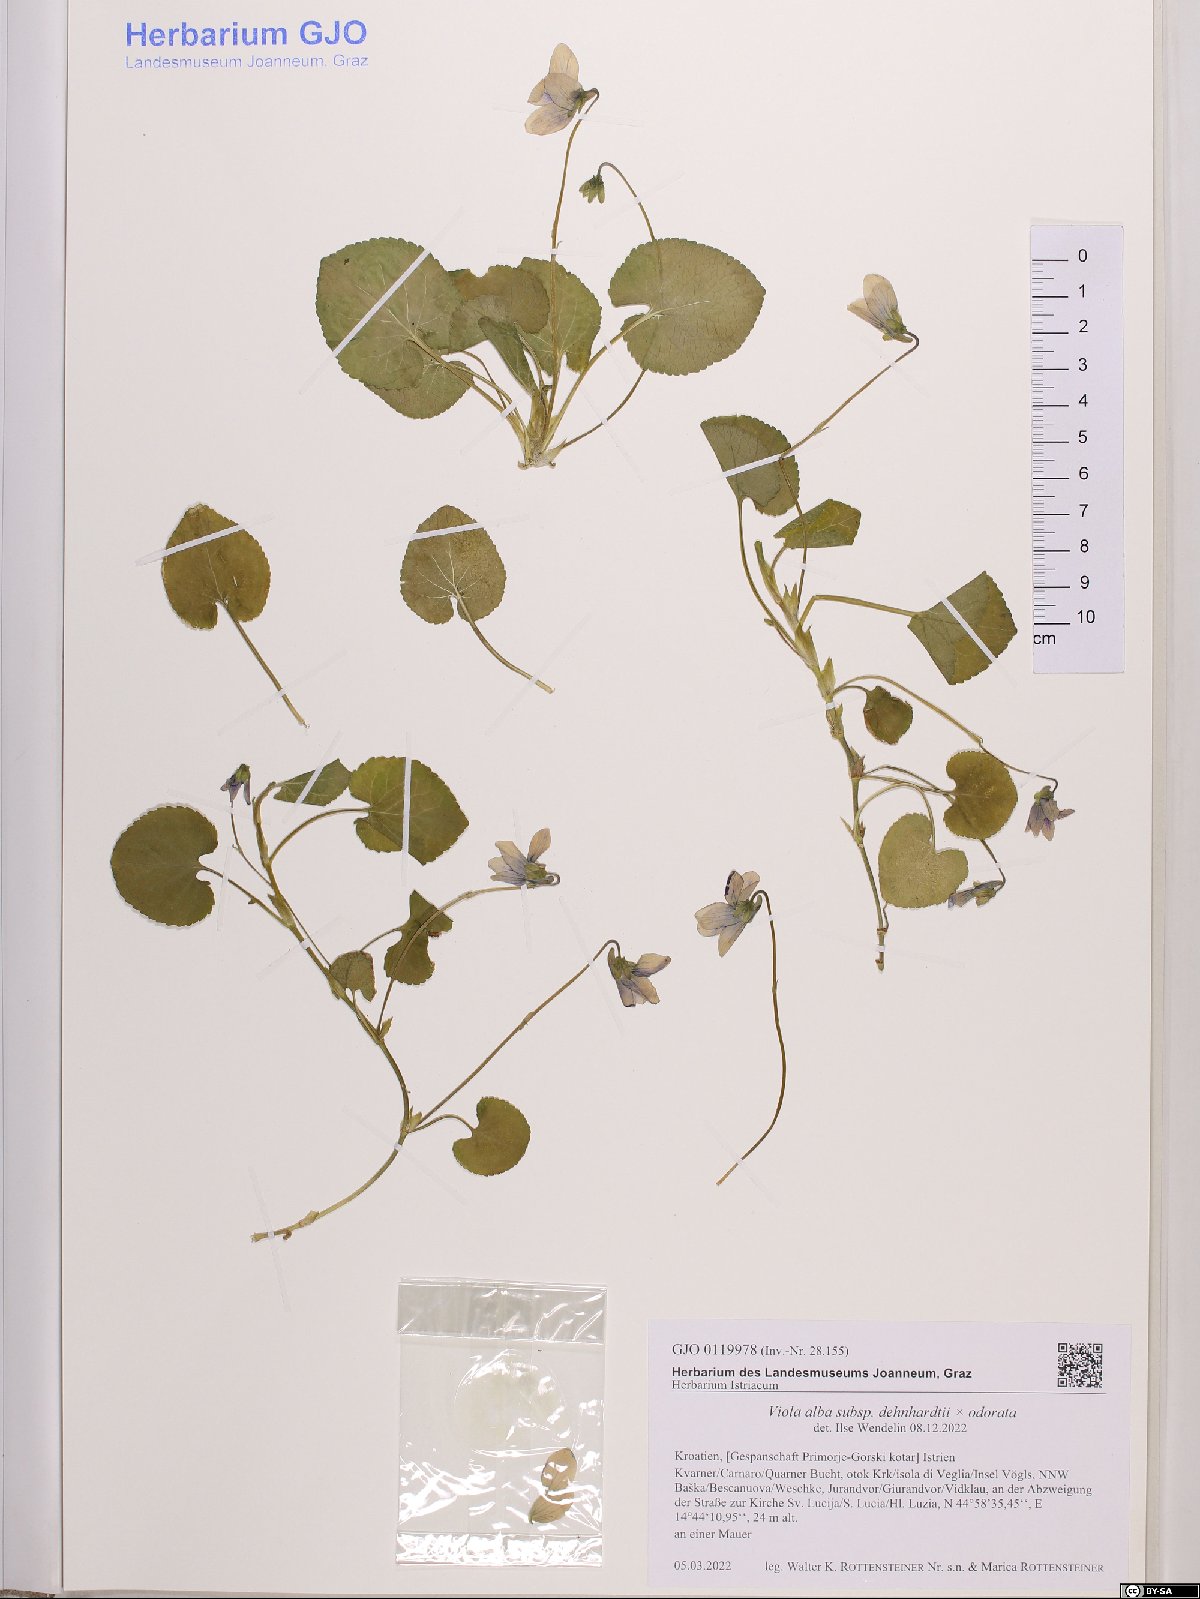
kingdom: Plantae
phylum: Tracheophyta
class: Magnoliopsida
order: Malpighiales
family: Violaceae
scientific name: Violaceae
